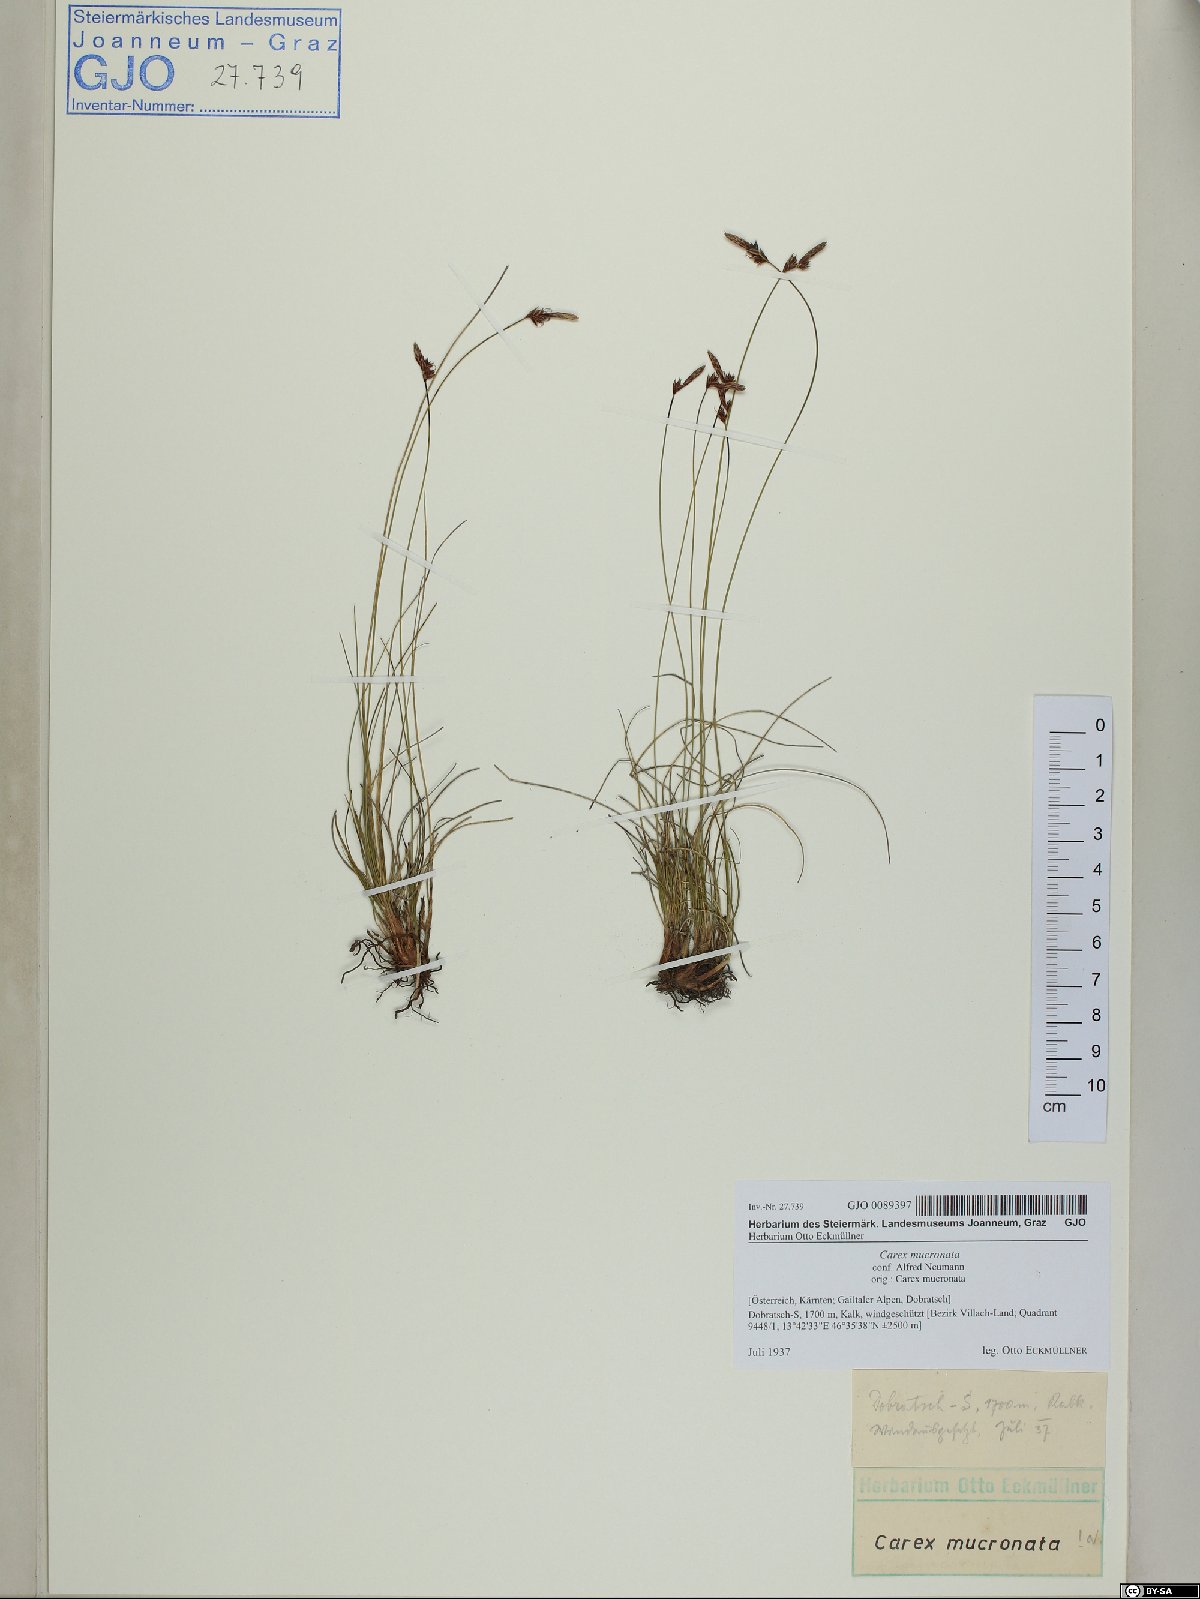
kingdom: Plantae
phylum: Tracheophyta
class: Liliopsida
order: Poales
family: Cyperaceae
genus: Carex
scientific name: Carex mucronata
